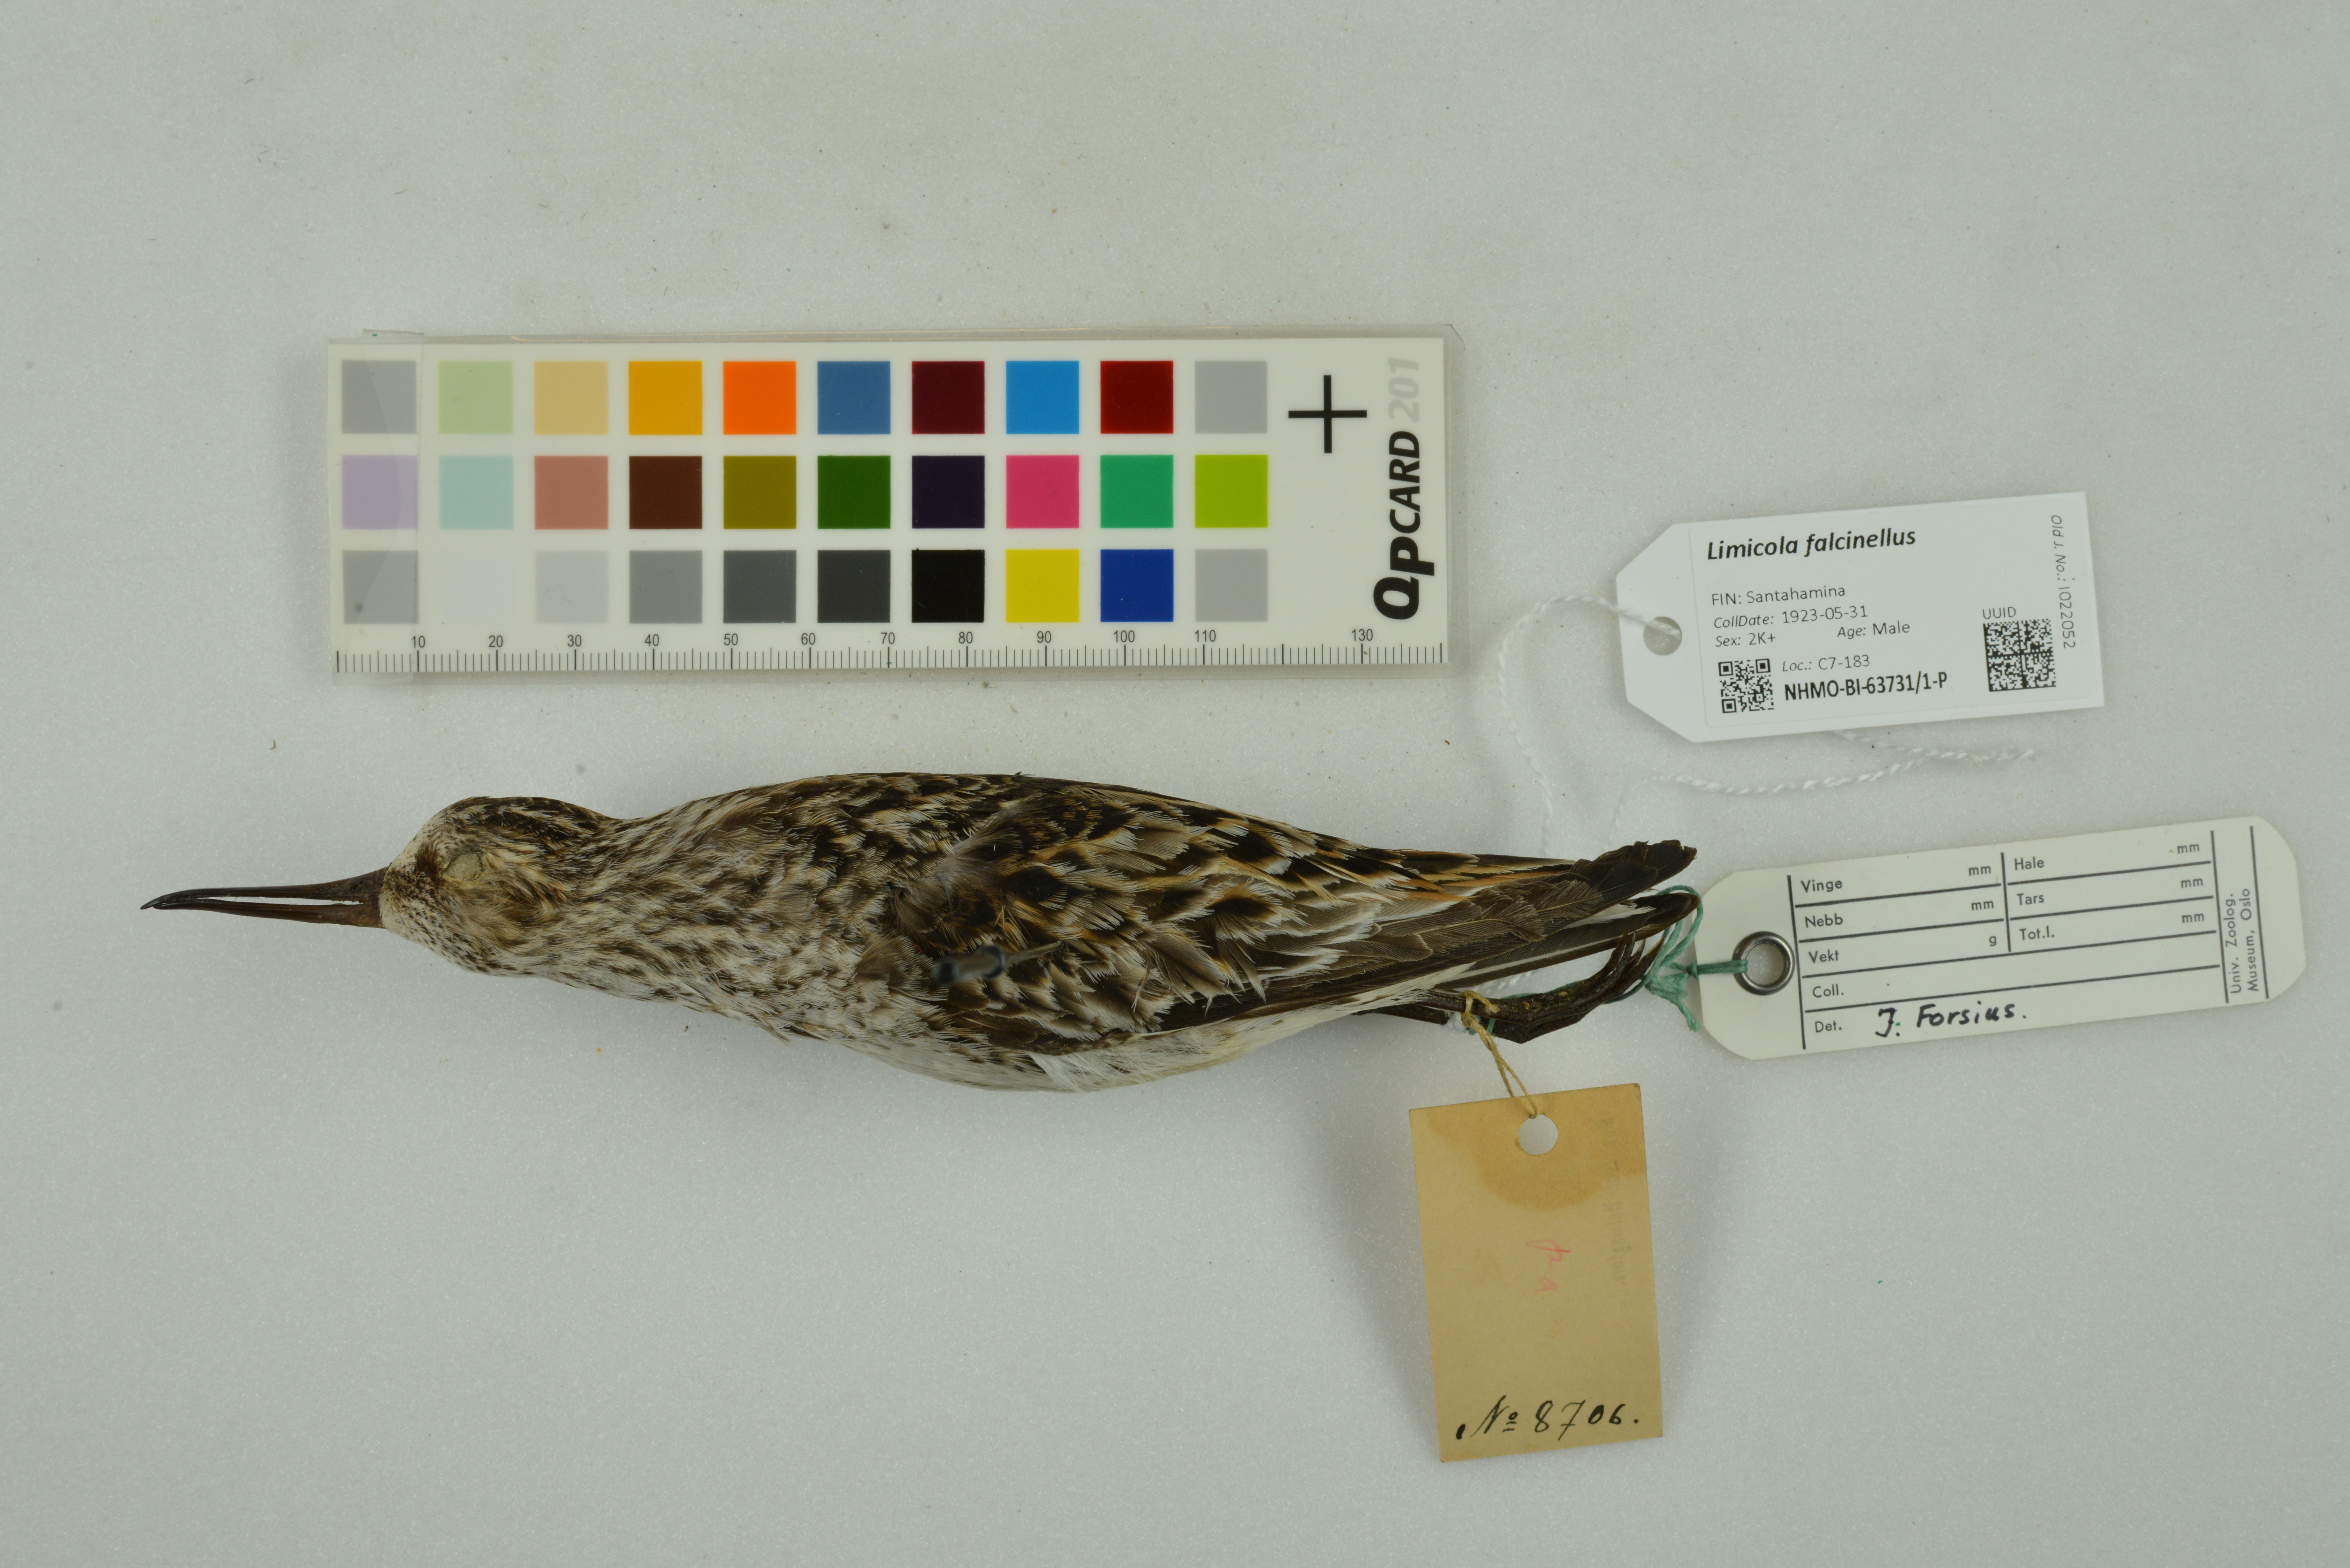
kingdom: Animalia
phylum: Chordata
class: Aves
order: Charadriiformes
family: Scolopacidae
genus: Calidris
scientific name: Calidris falcinellus
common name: Broad-billed sandpiper
